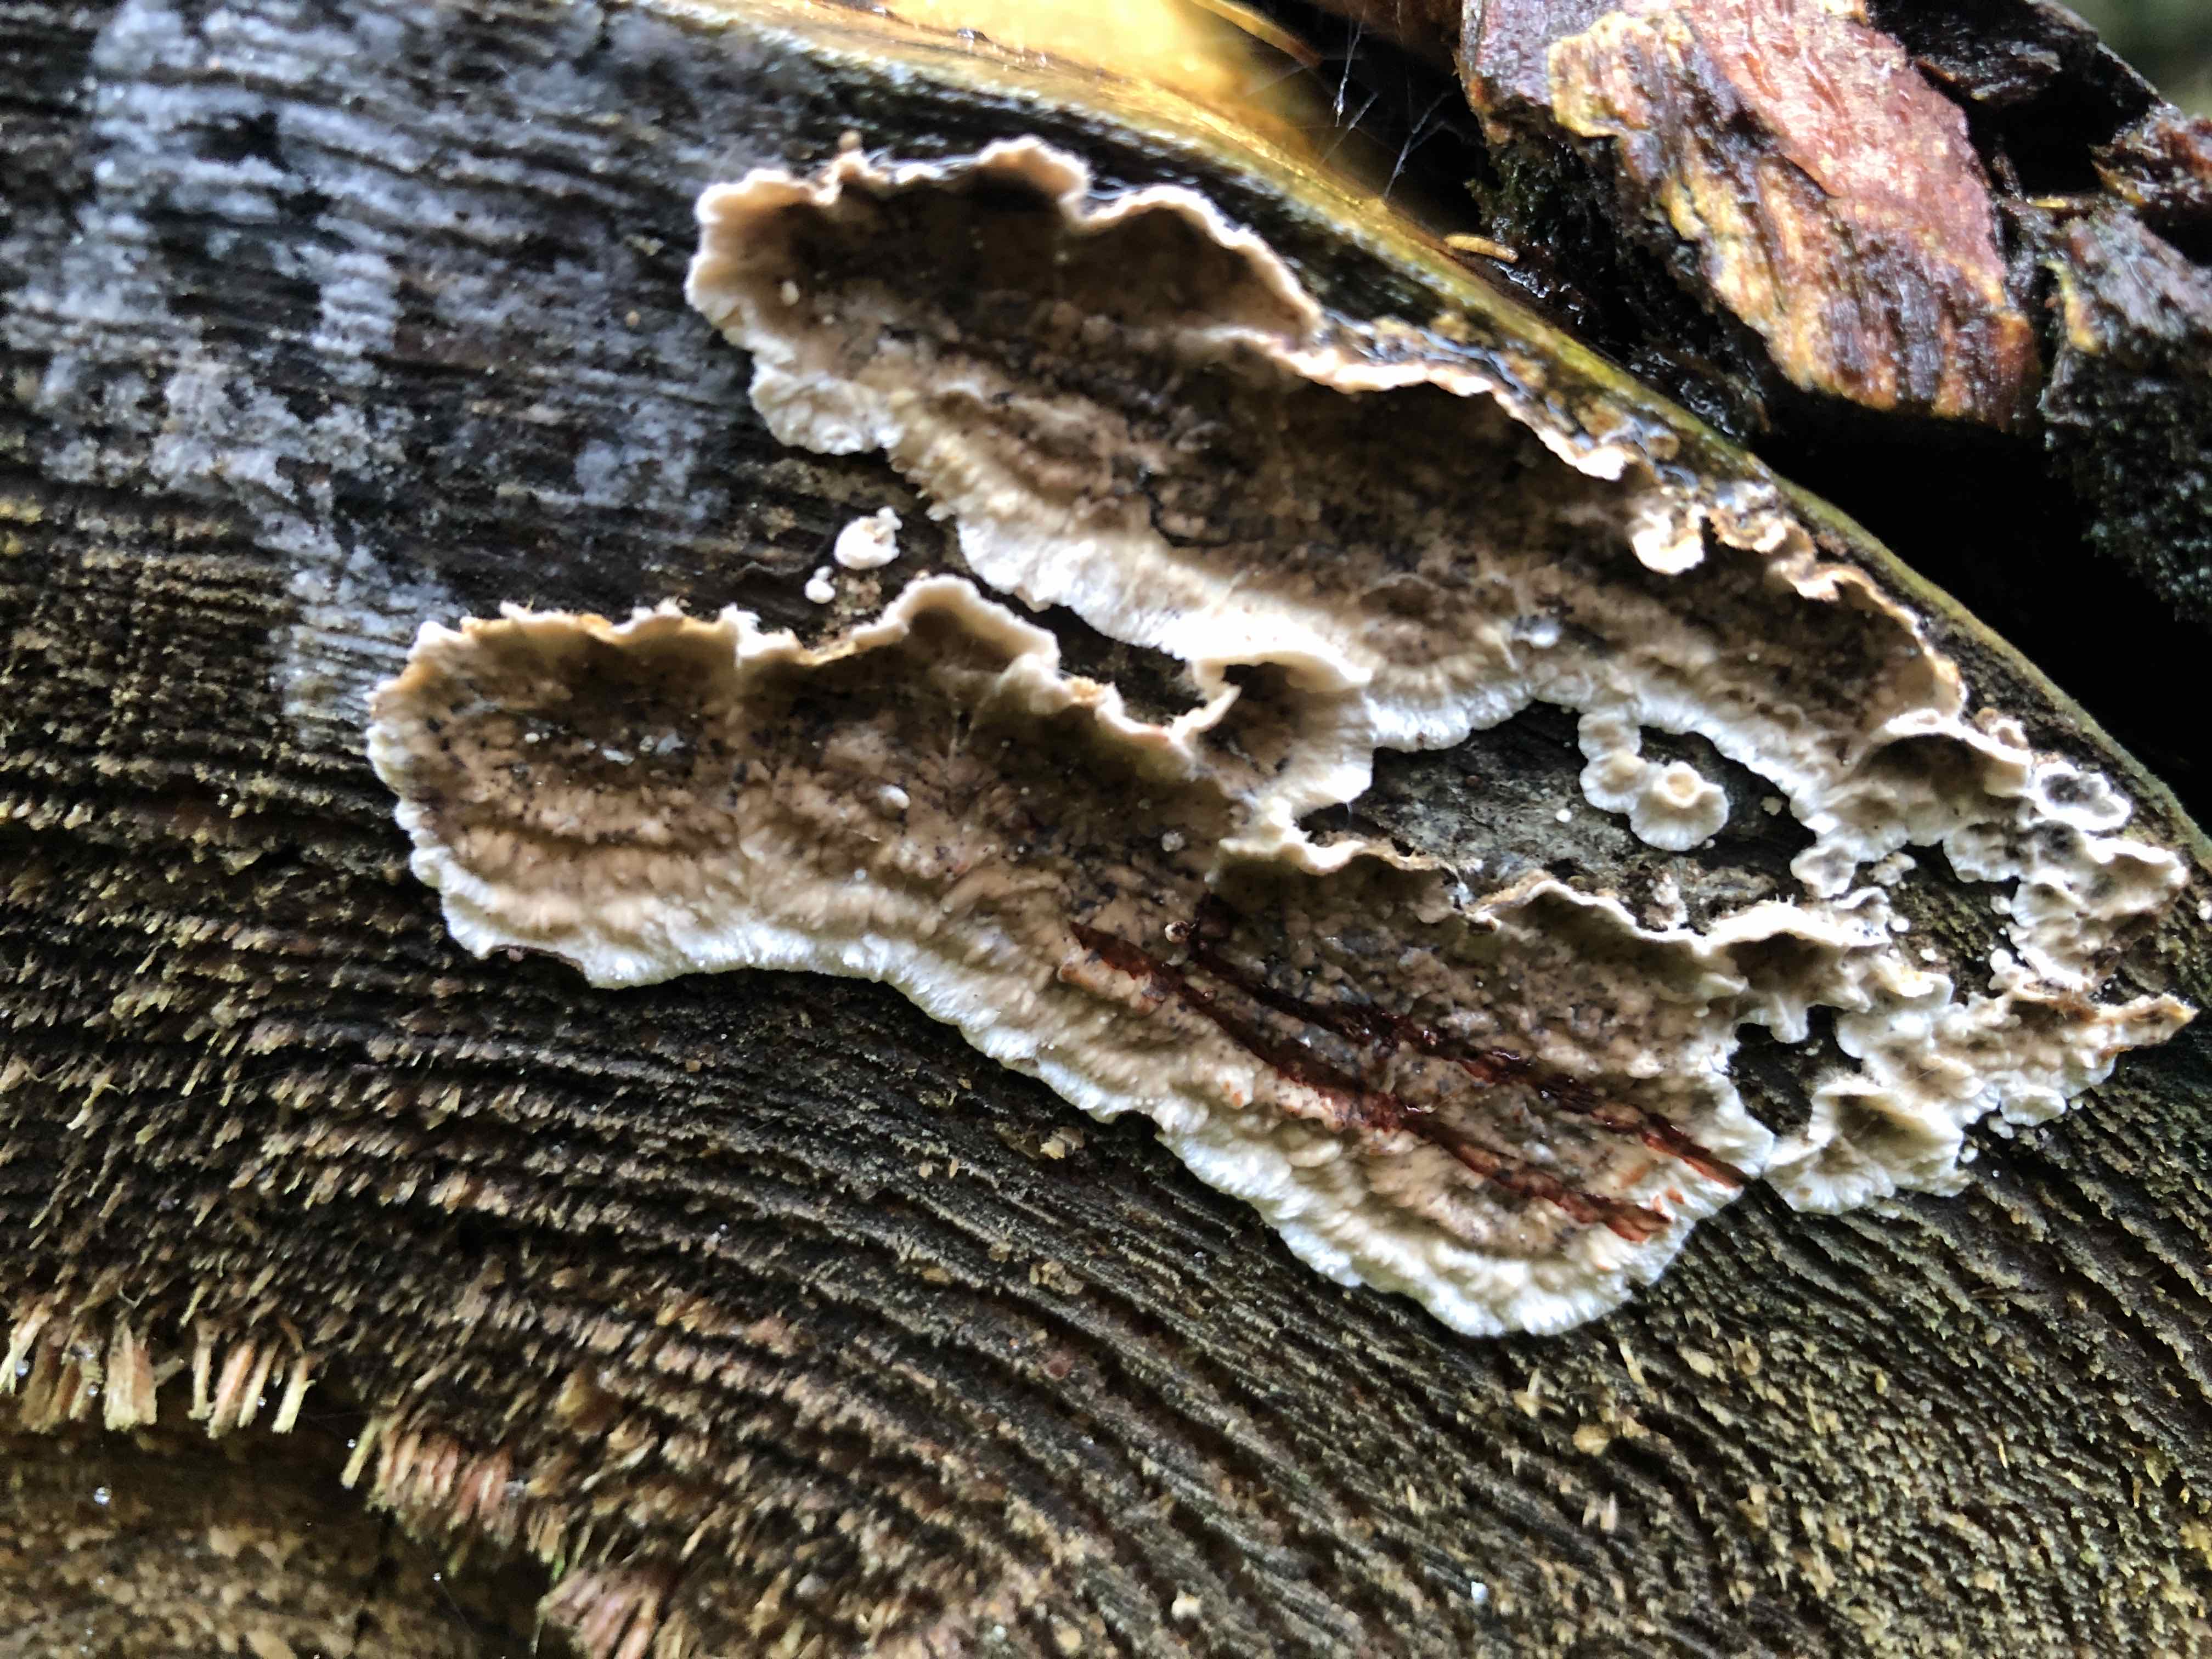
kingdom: Fungi
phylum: Basidiomycota
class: Agaricomycetes
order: Russulales
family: Stereaceae
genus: Stereum
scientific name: Stereum sanguinolentum
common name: blødende lædersvamp
